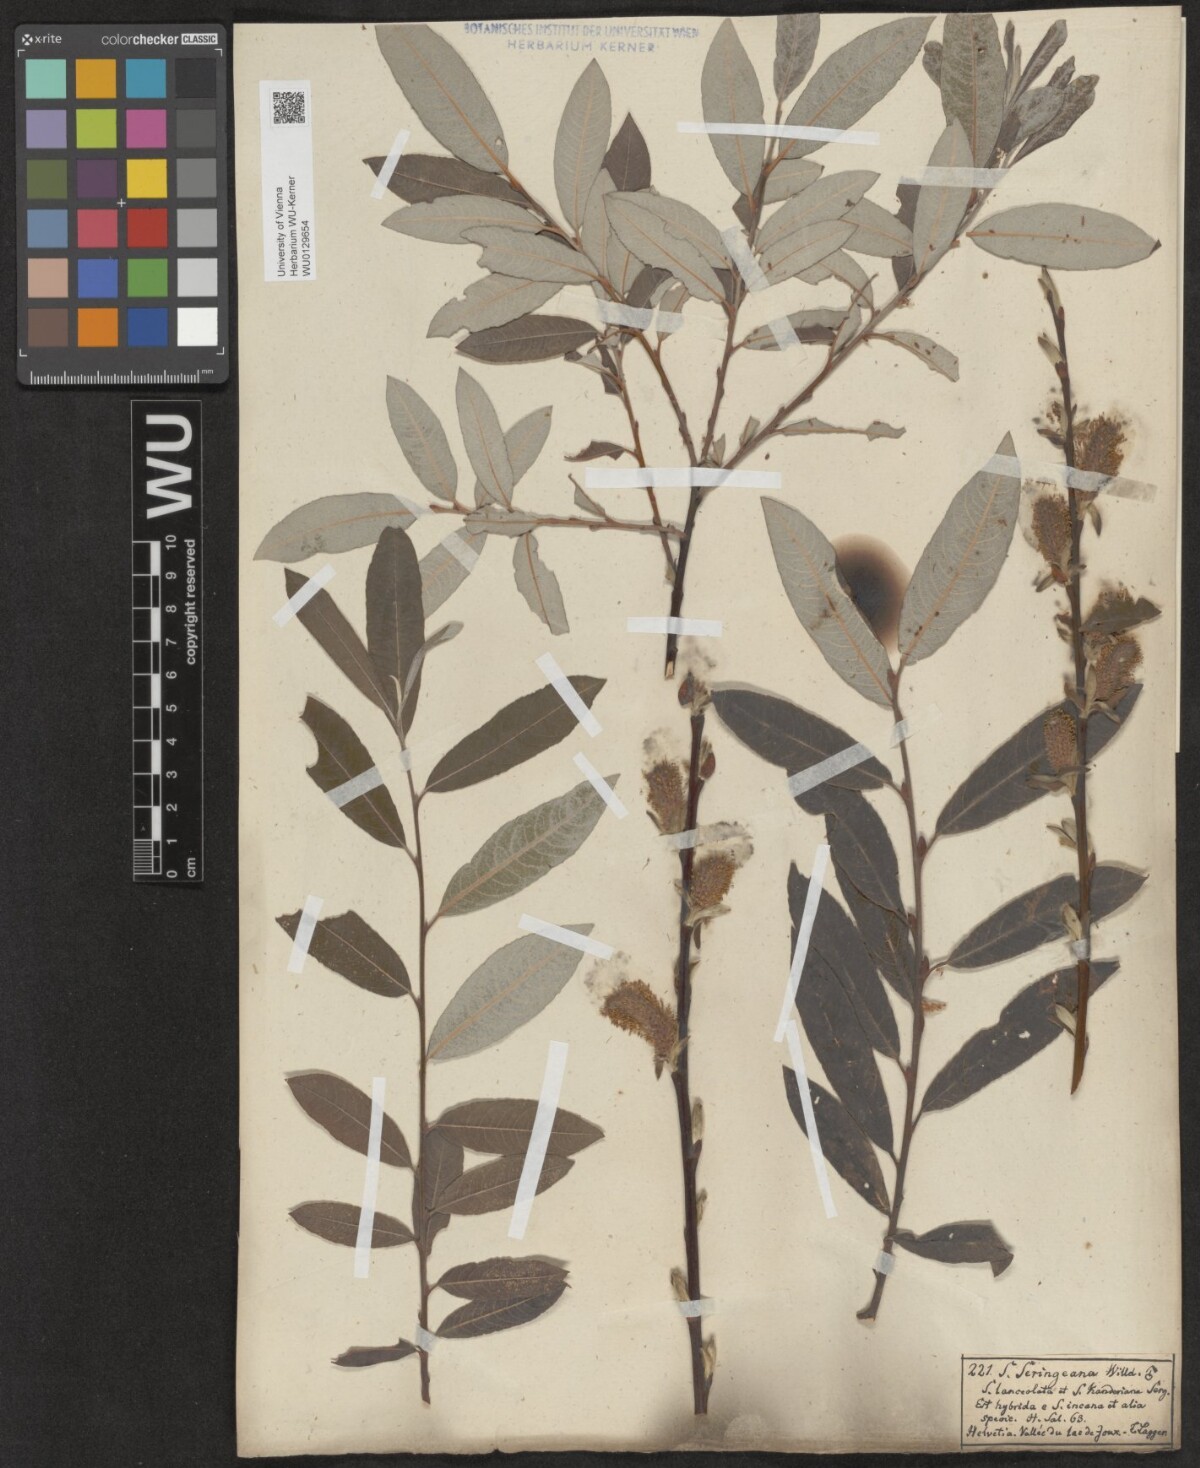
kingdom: Plantae
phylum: Tracheophyta
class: Magnoliopsida
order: Malpighiales
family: Salicaceae
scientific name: Salicaceae
